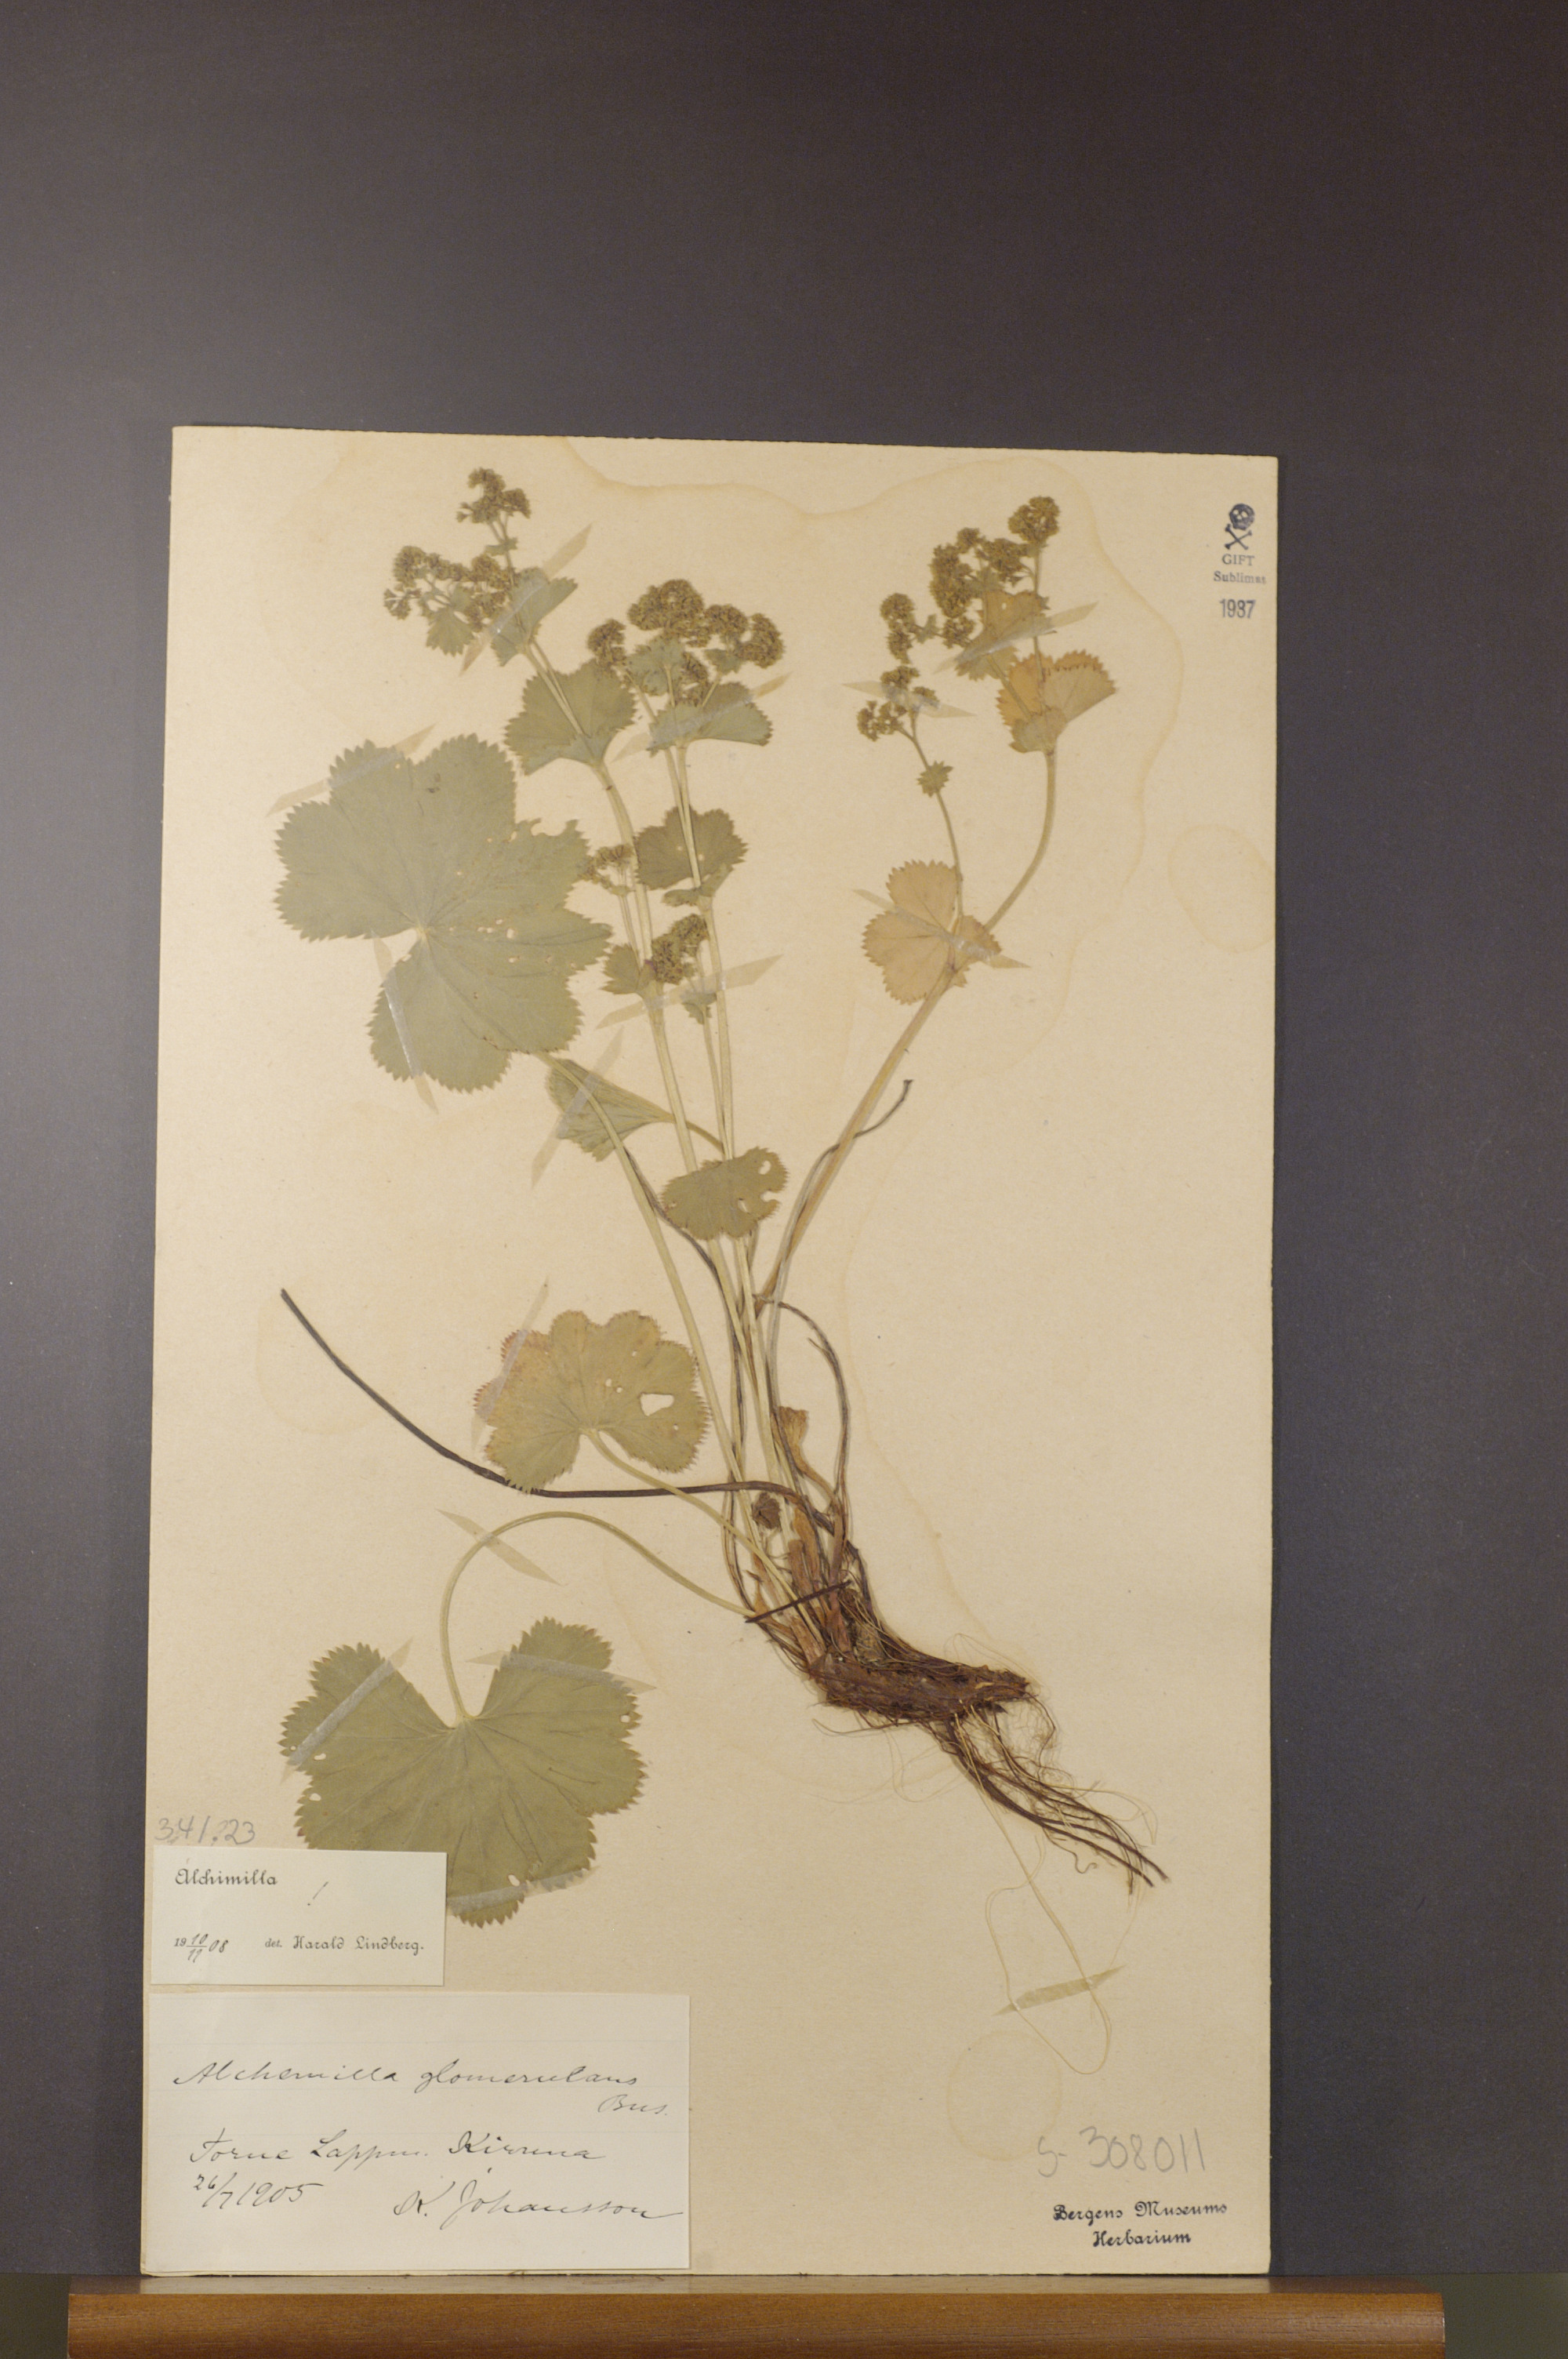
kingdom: Plantae
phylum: Tracheophyta
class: Magnoliopsida
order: Rosales
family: Rosaceae
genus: Alchemilla
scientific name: Alchemilla glomerulans
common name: Clustered lady's mantle
